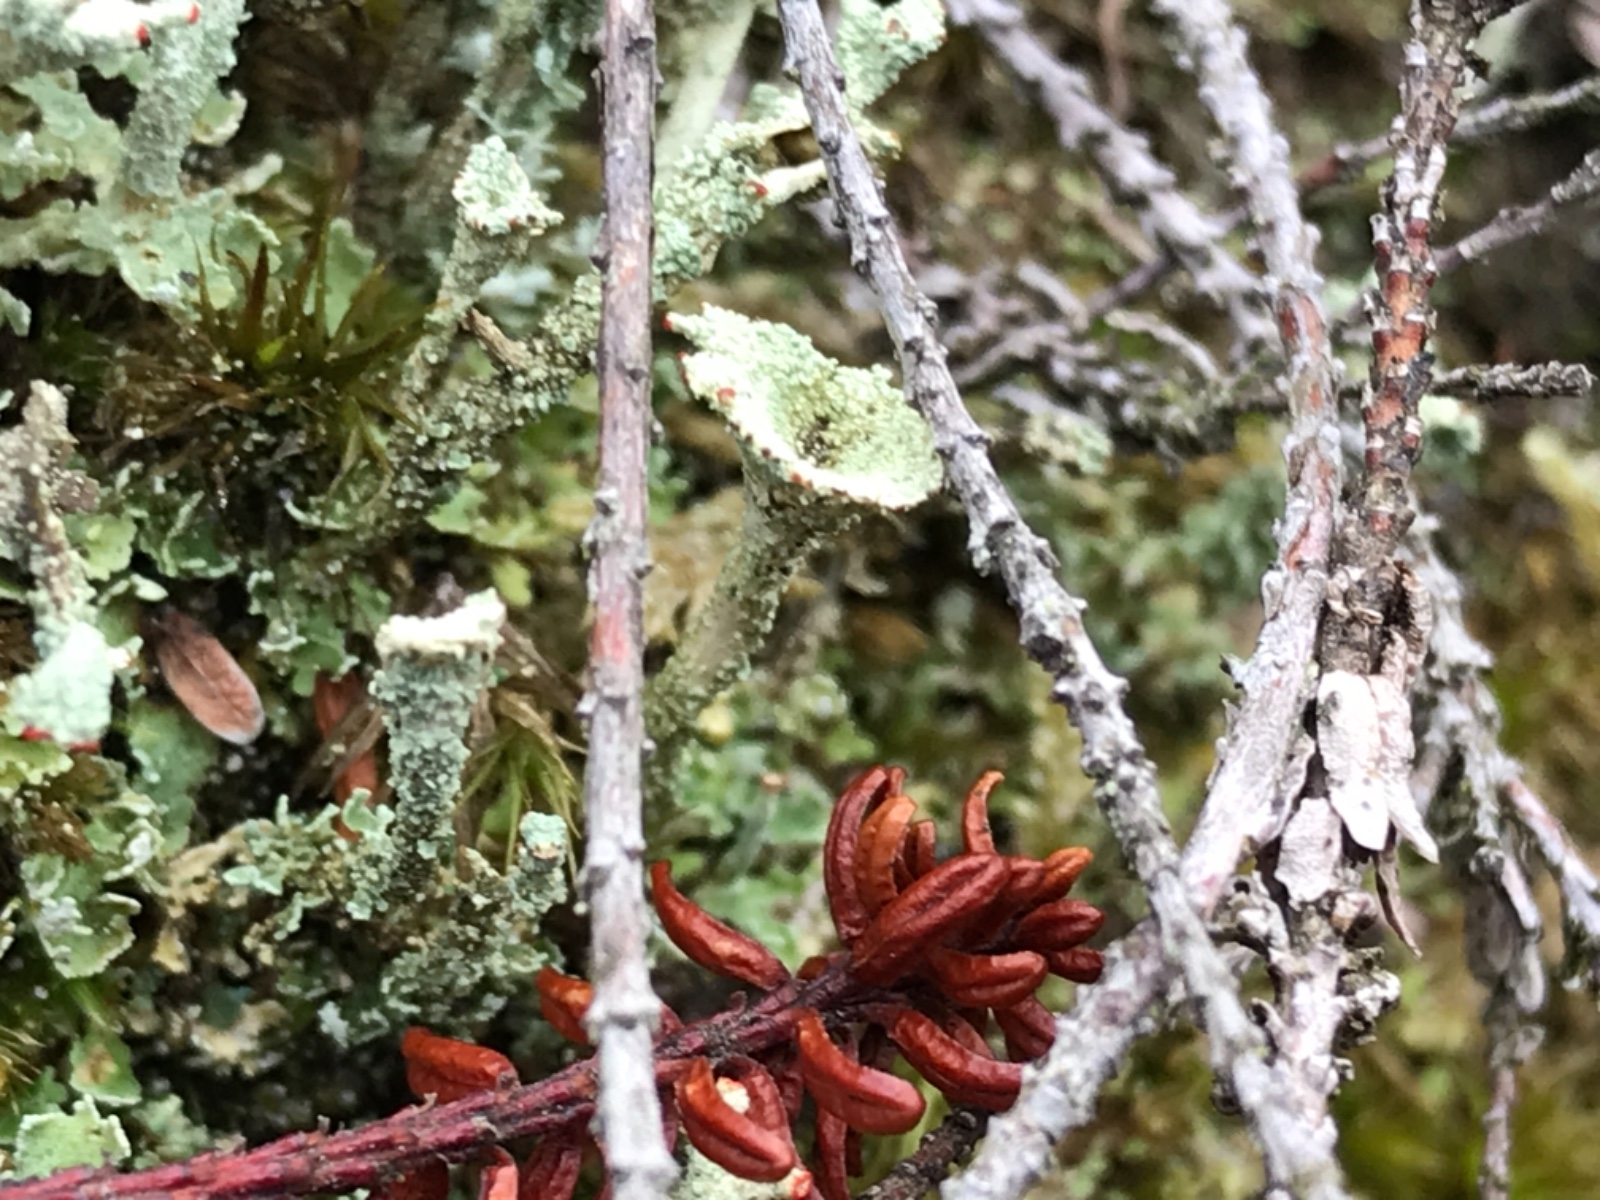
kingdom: Fungi
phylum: Ascomycota
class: Lecanoromycetes
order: Lecanorales
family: Cladoniaceae
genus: Cladonia
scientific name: Cladonia diversa
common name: rød bægerlav
